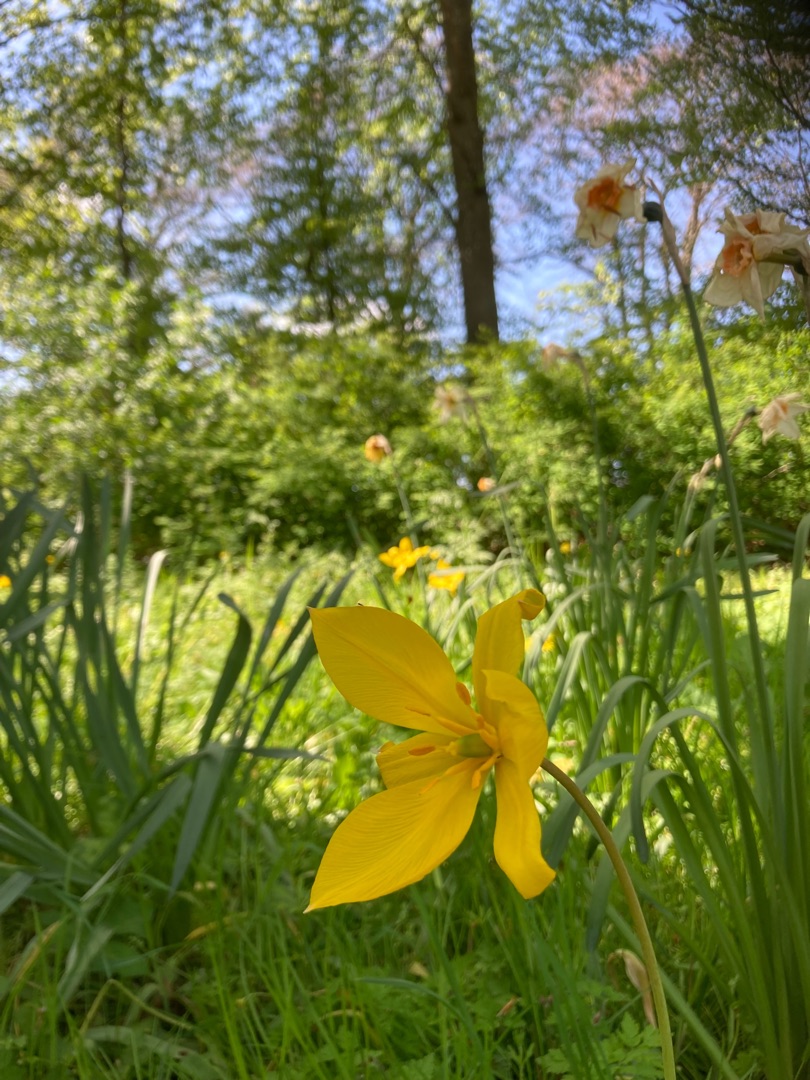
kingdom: Plantae
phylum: Tracheophyta
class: Liliopsida
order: Liliales
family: Liliaceae
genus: Tulipa
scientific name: Tulipa sylvestris
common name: Vild tulipan
